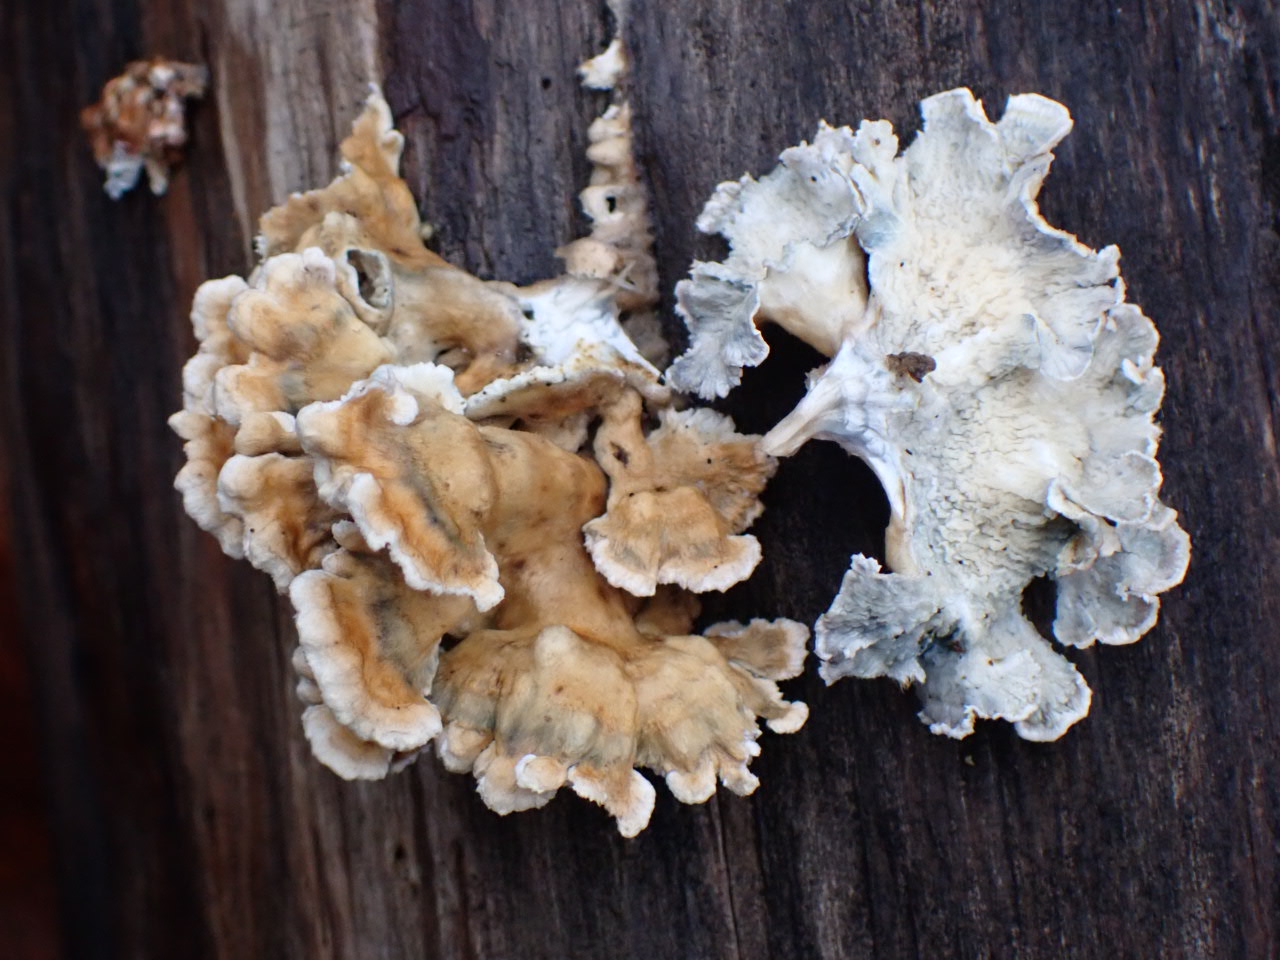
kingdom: Fungi
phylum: Basidiomycota
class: Agaricomycetes
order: Amylocorticiales
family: Amylocorticiaceae
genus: Plicaturopsis
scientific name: Plicaturopsis crispa
